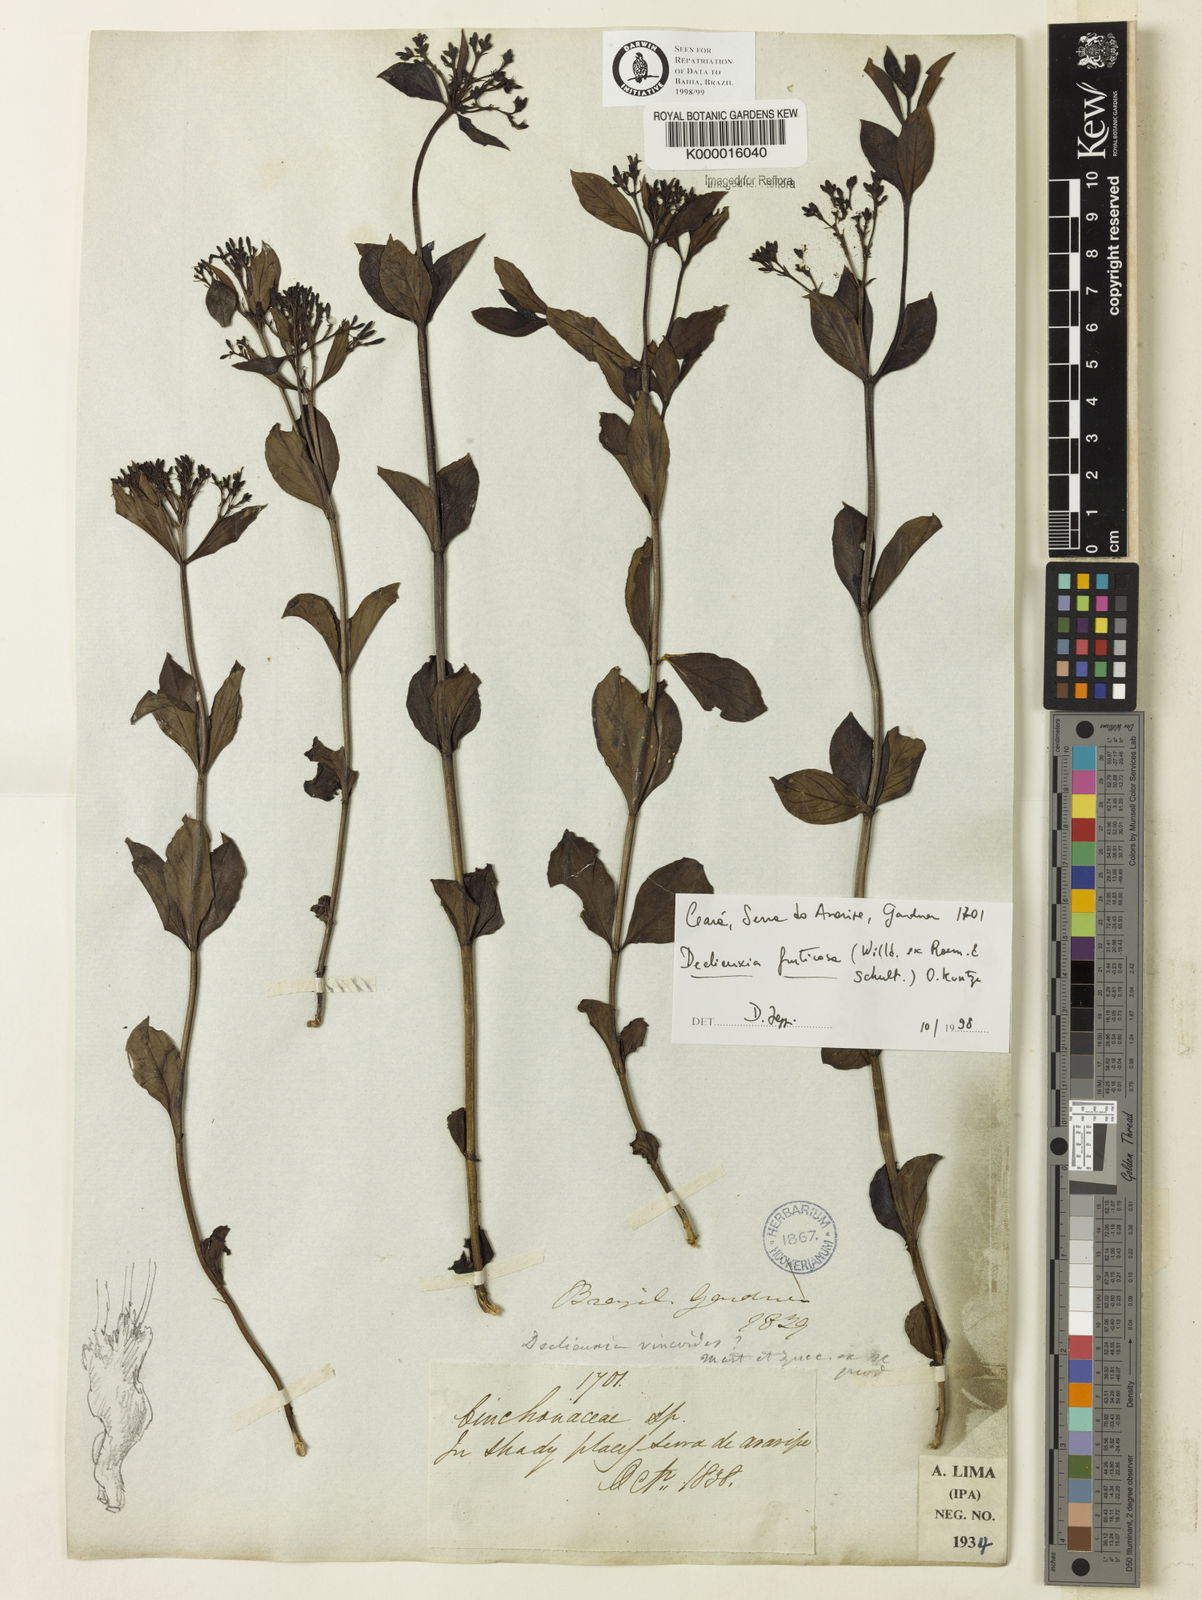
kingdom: Plantae
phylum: Tracheophyta
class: Magnoliopsida
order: Gentianales
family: Rubiaceae
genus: Declieuxia
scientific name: Declieuxia fruticosa
